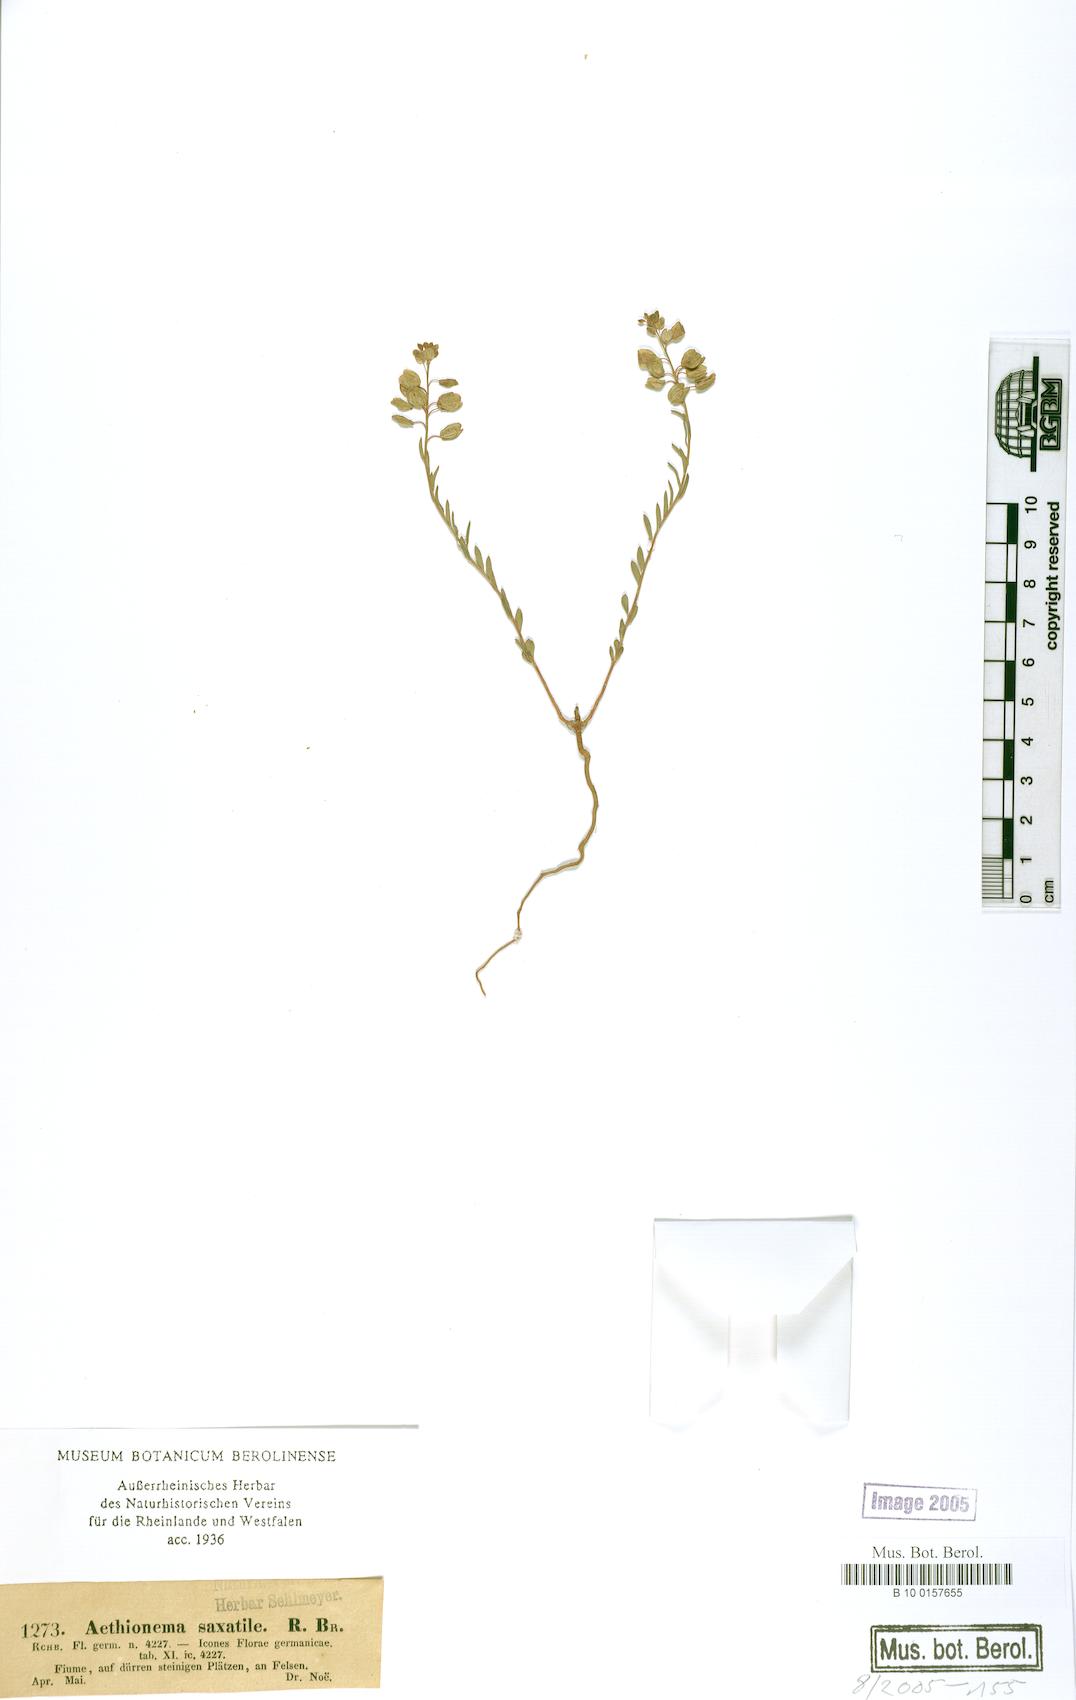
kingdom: Plantae
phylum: Tracheophyta
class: Magnoliopsida
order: Brassicales
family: Brassicaceae
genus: Aethionema
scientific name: Aethionema saxatile
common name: Burnt candytuft
